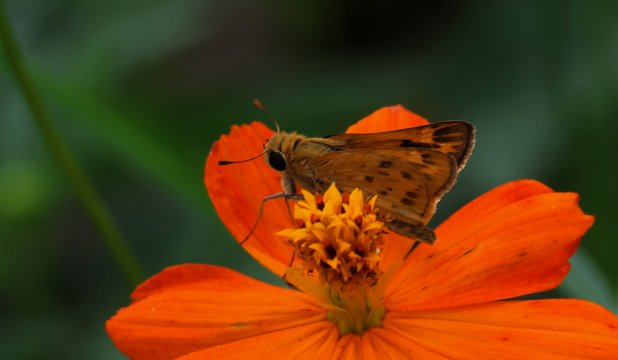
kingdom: Animalia
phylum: Arthropoda
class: Insecta
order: Lepidoptera
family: Hesperiidae
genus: Hylephila
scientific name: Hylephila phyleus
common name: Fiery Skipper
